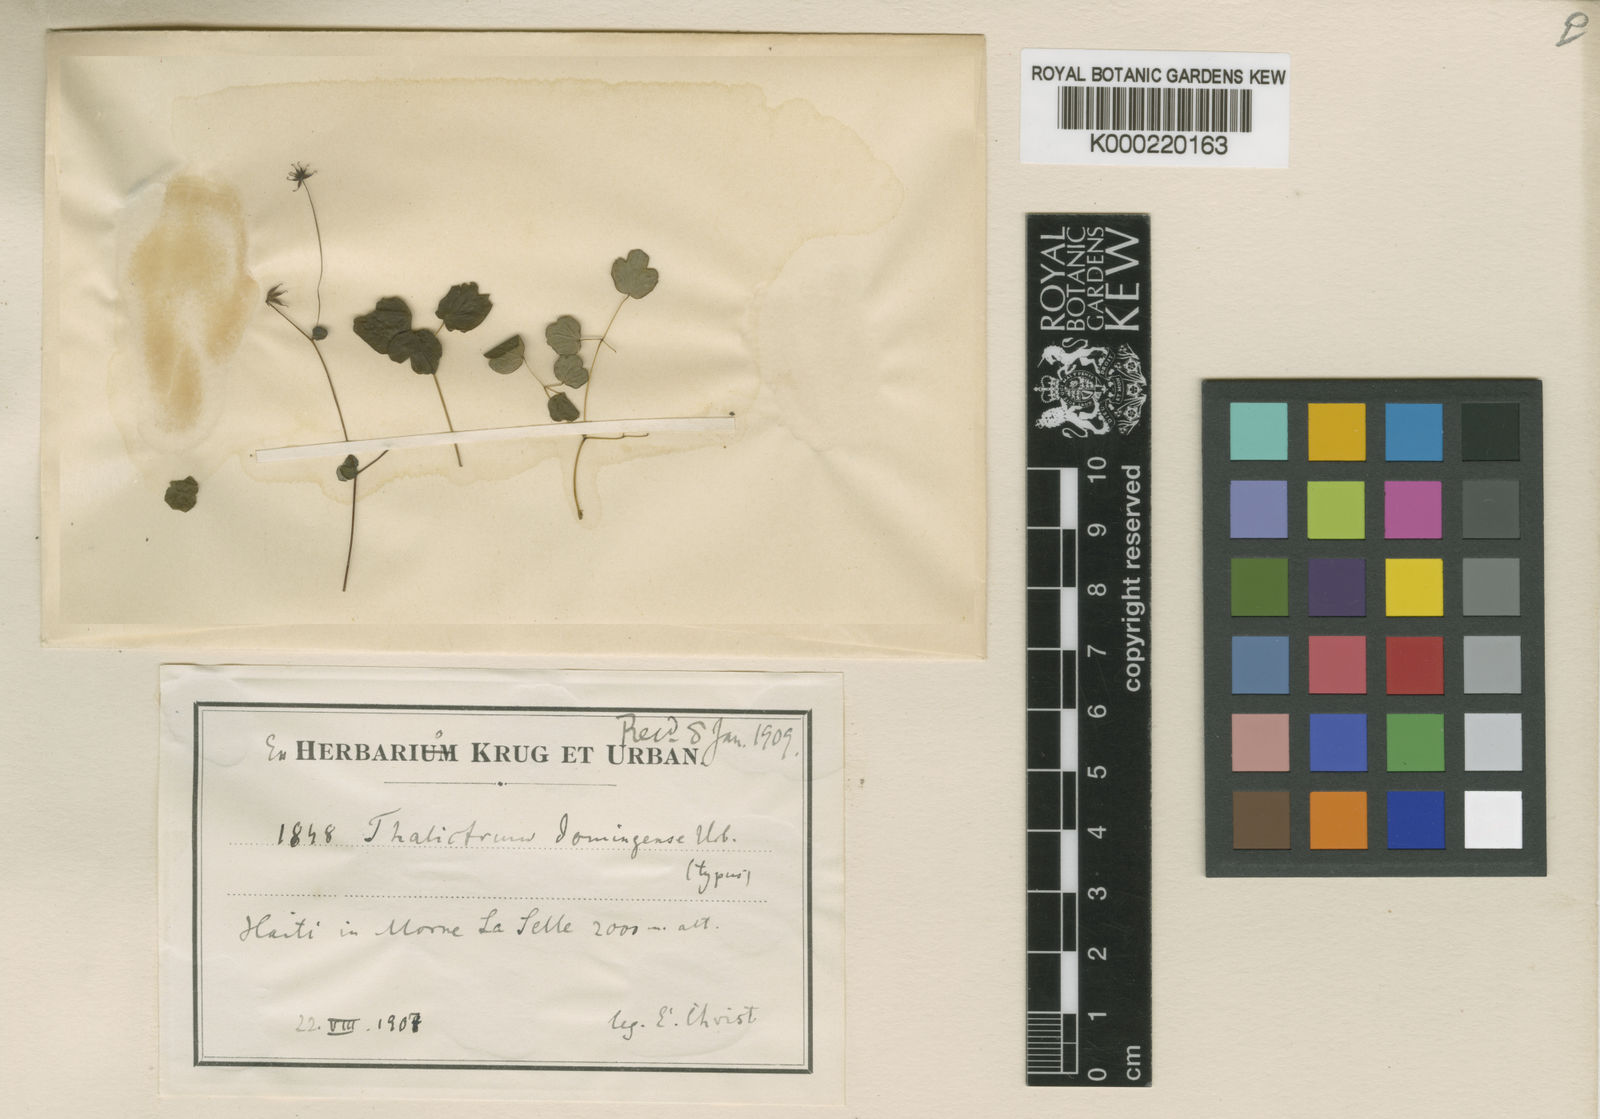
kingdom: Plantae
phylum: Tracheophyta
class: Magnoliopsida
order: Ranunculales
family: Ranunculaceae
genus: Thalictrum
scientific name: Thalictrum domingense
